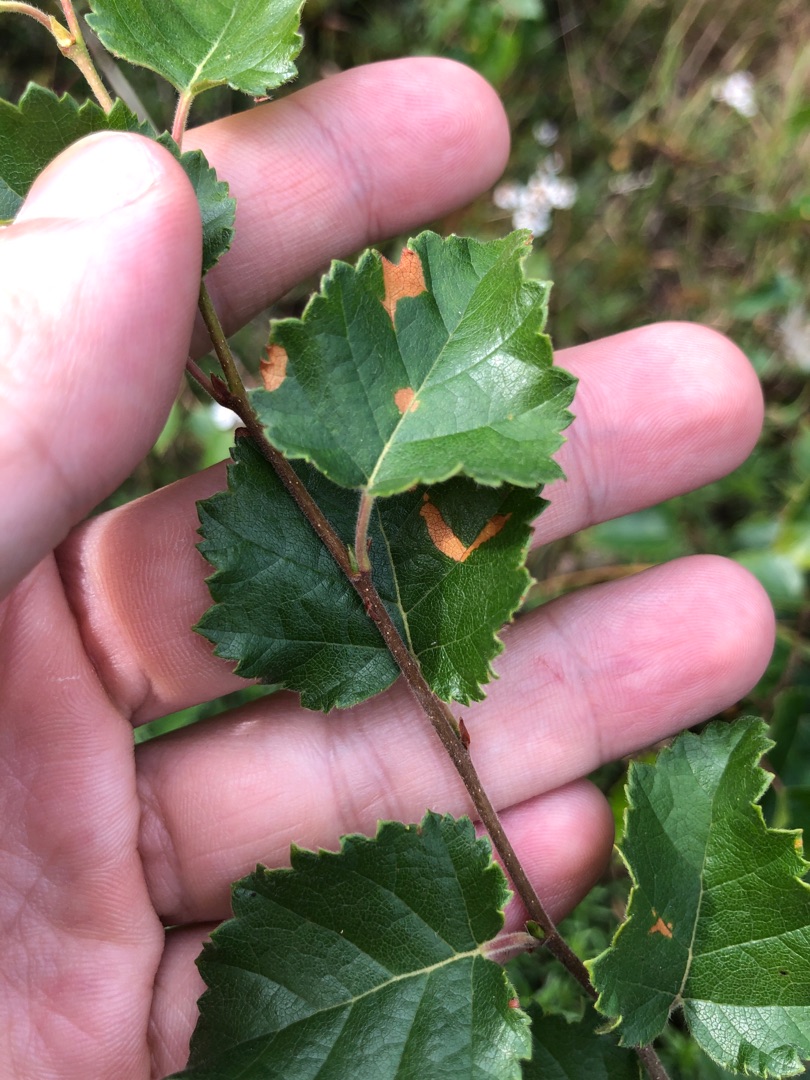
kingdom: Plantae
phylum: Tracheophyta
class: Magnoliopsida
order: Fagales
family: Betulaceae
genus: Betula
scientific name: Betula pubescens
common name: Dun-birk
